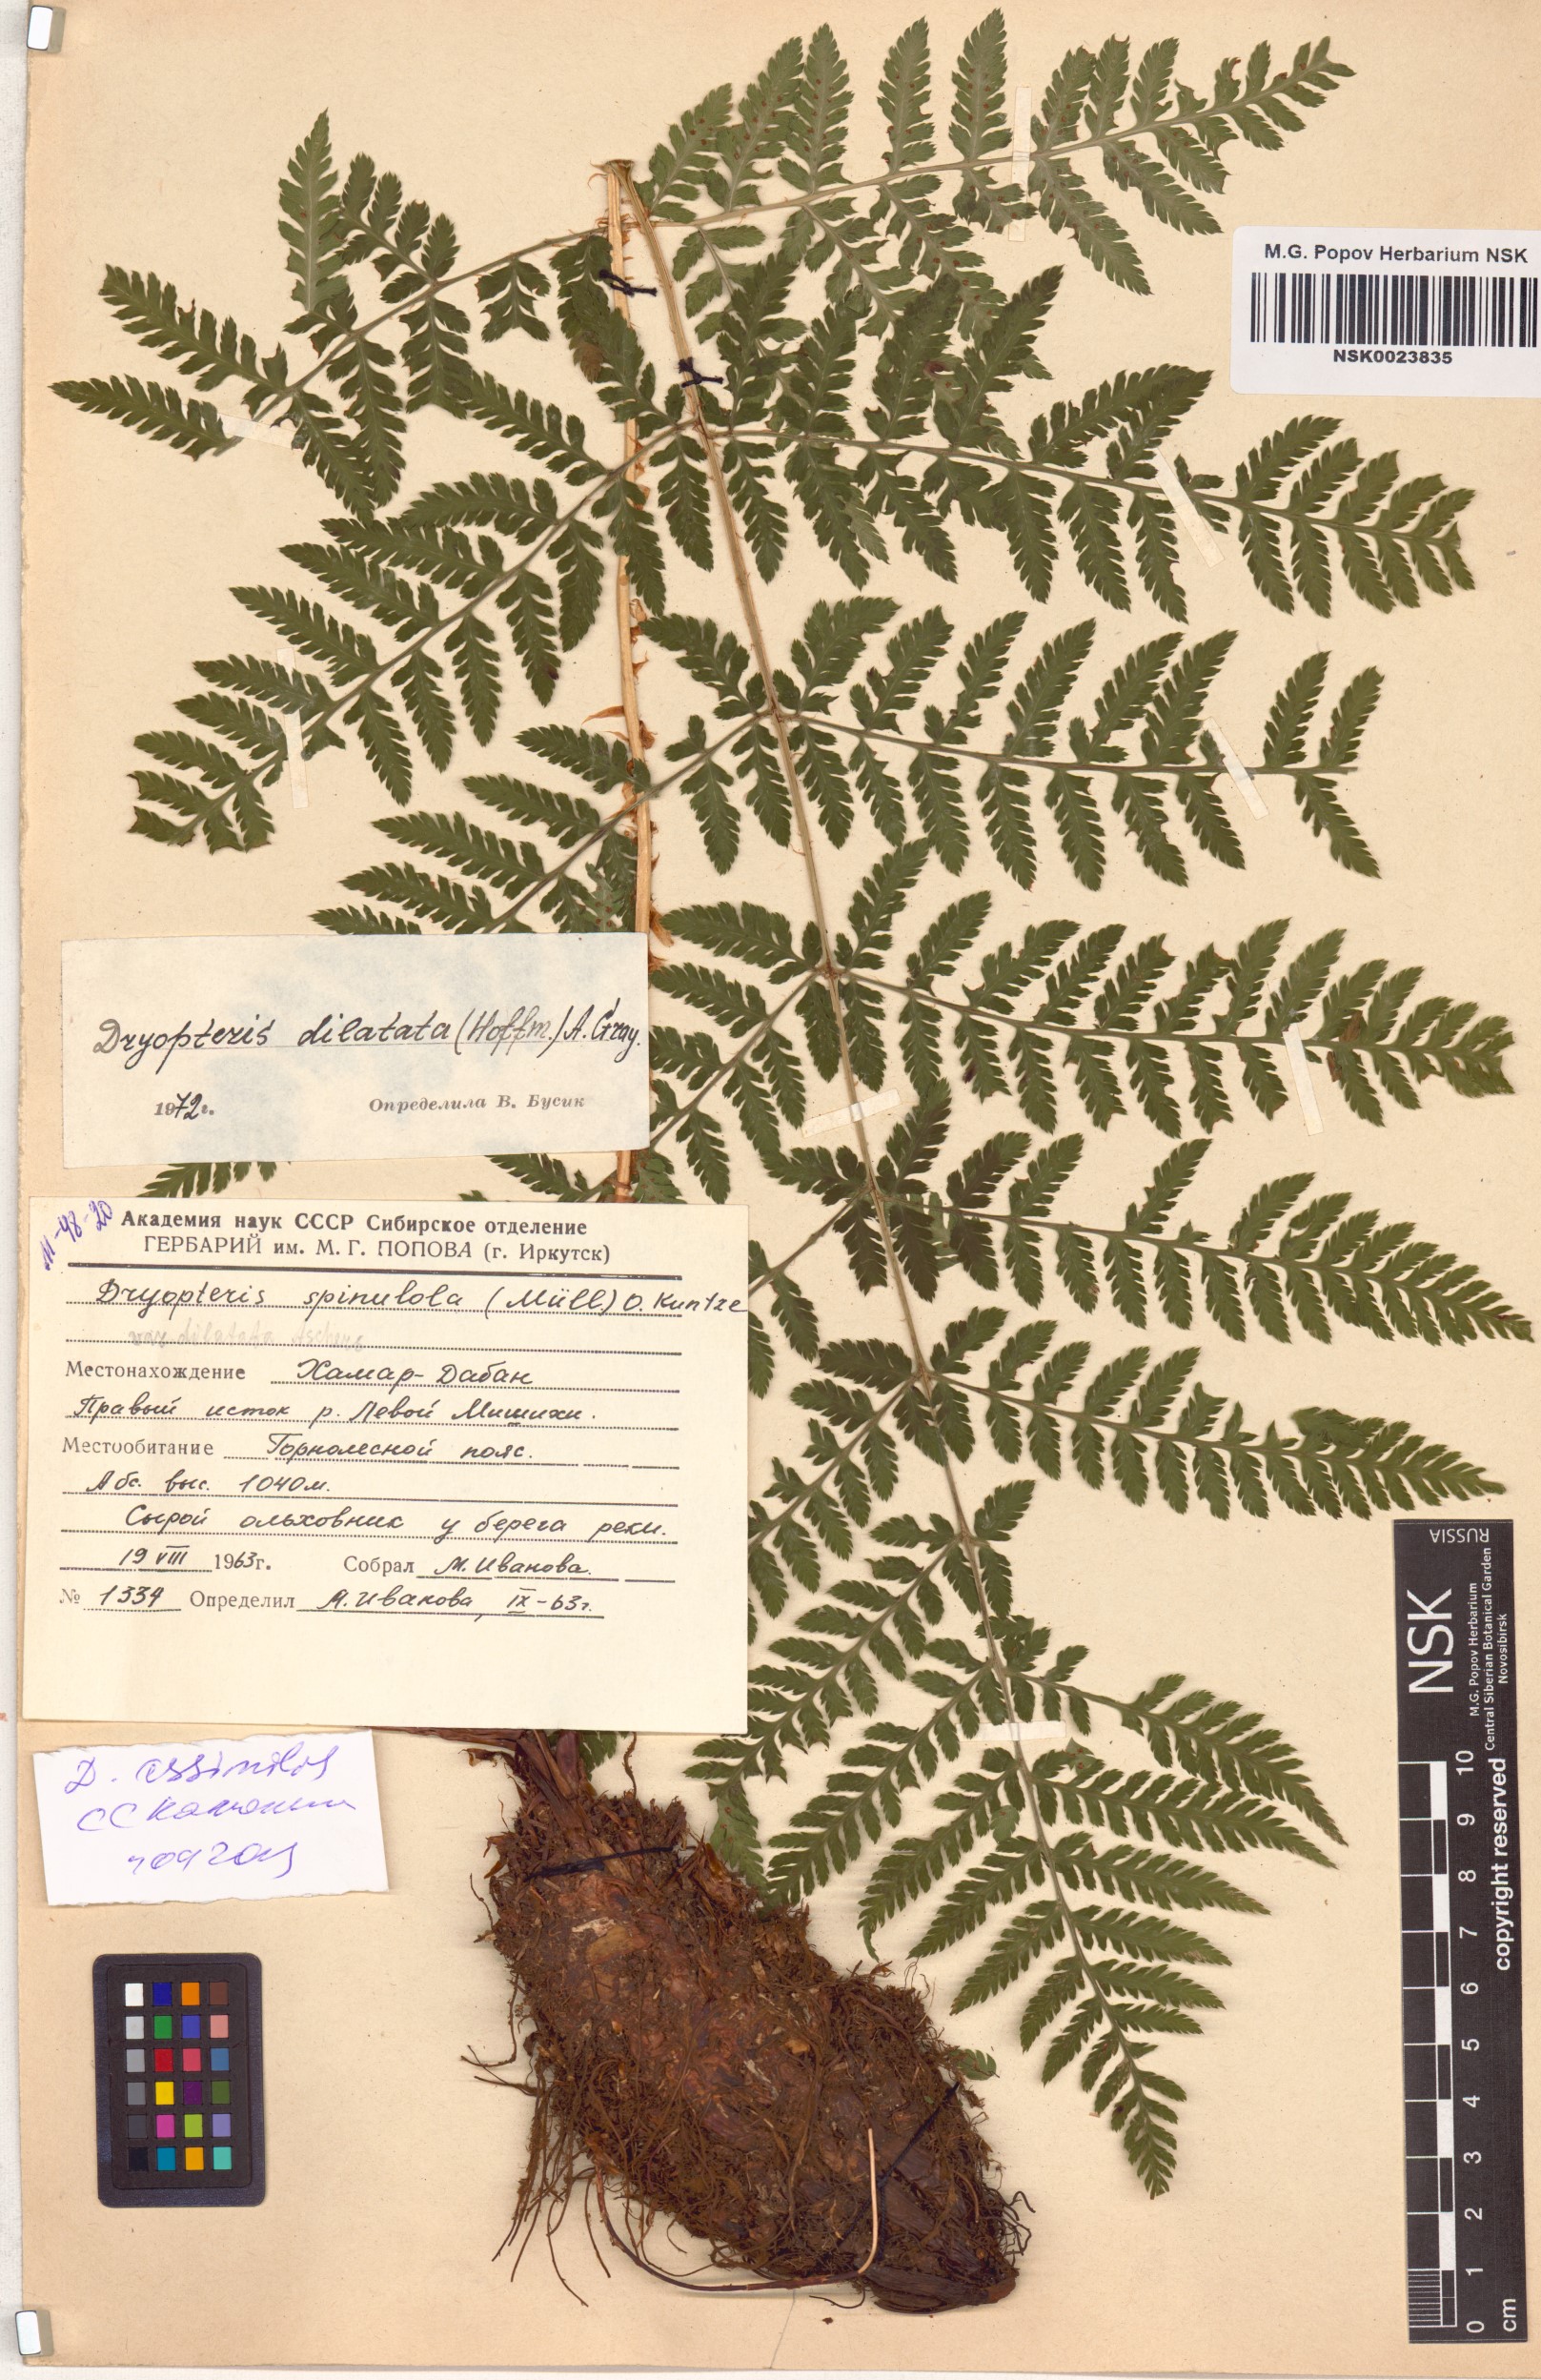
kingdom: Plantae
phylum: Tracheophyta
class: Polypodiopsida
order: Polypodiales
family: Dryopteridaceae
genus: Dryopteris
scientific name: Dryopteris expansa
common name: Northern buckler fern
